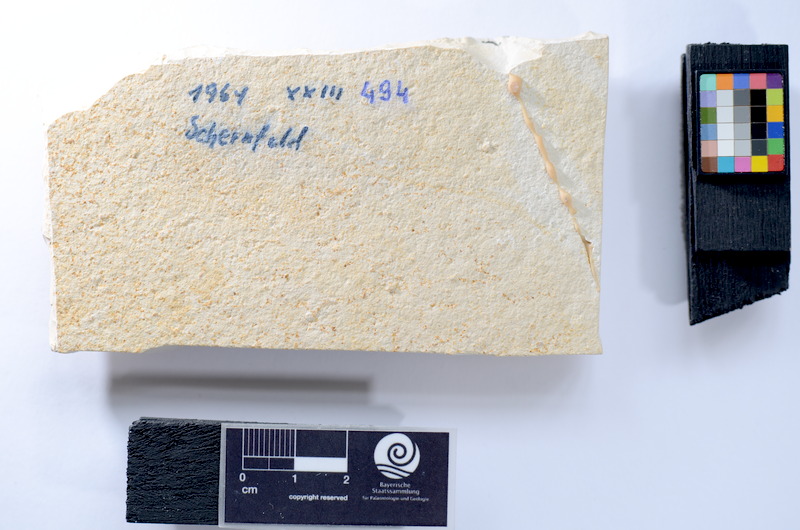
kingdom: Animalia
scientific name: Animalia
